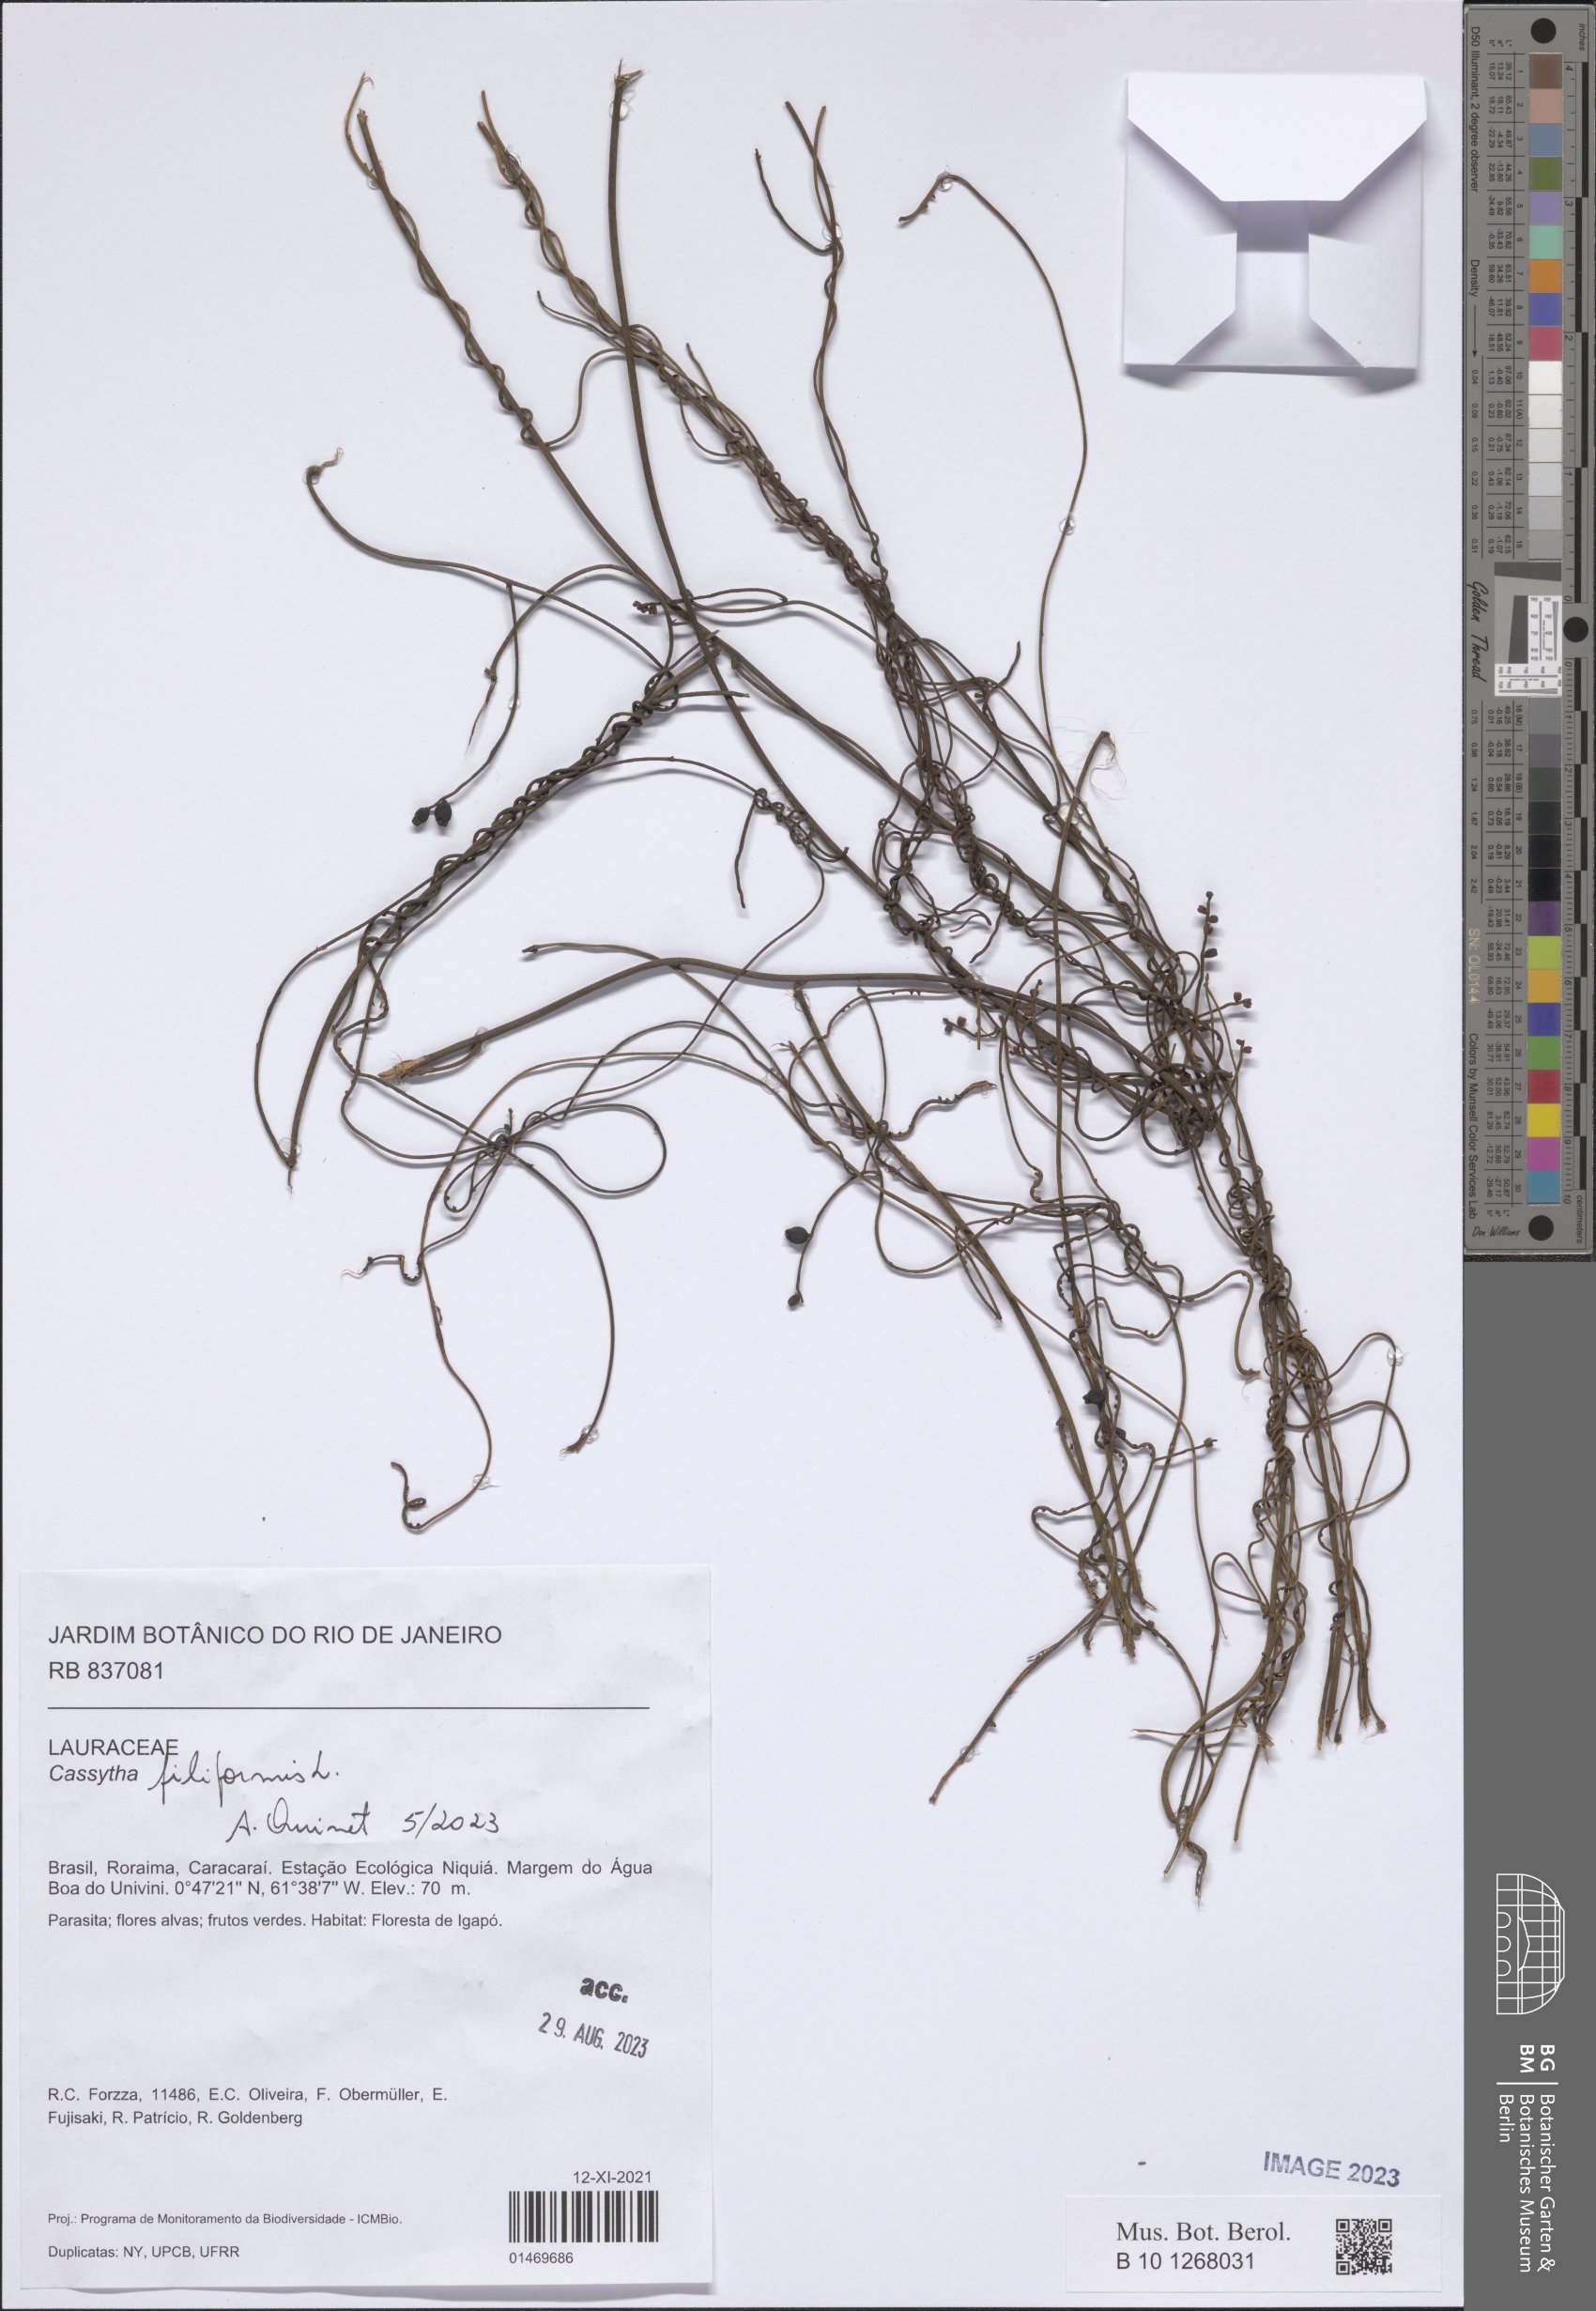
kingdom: Plantae
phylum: Tracheophyta
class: Magnoliopsida
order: Laurales
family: Lauraceae
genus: Cassytha
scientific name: Cassytha filiformis
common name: Dodder-laurel
